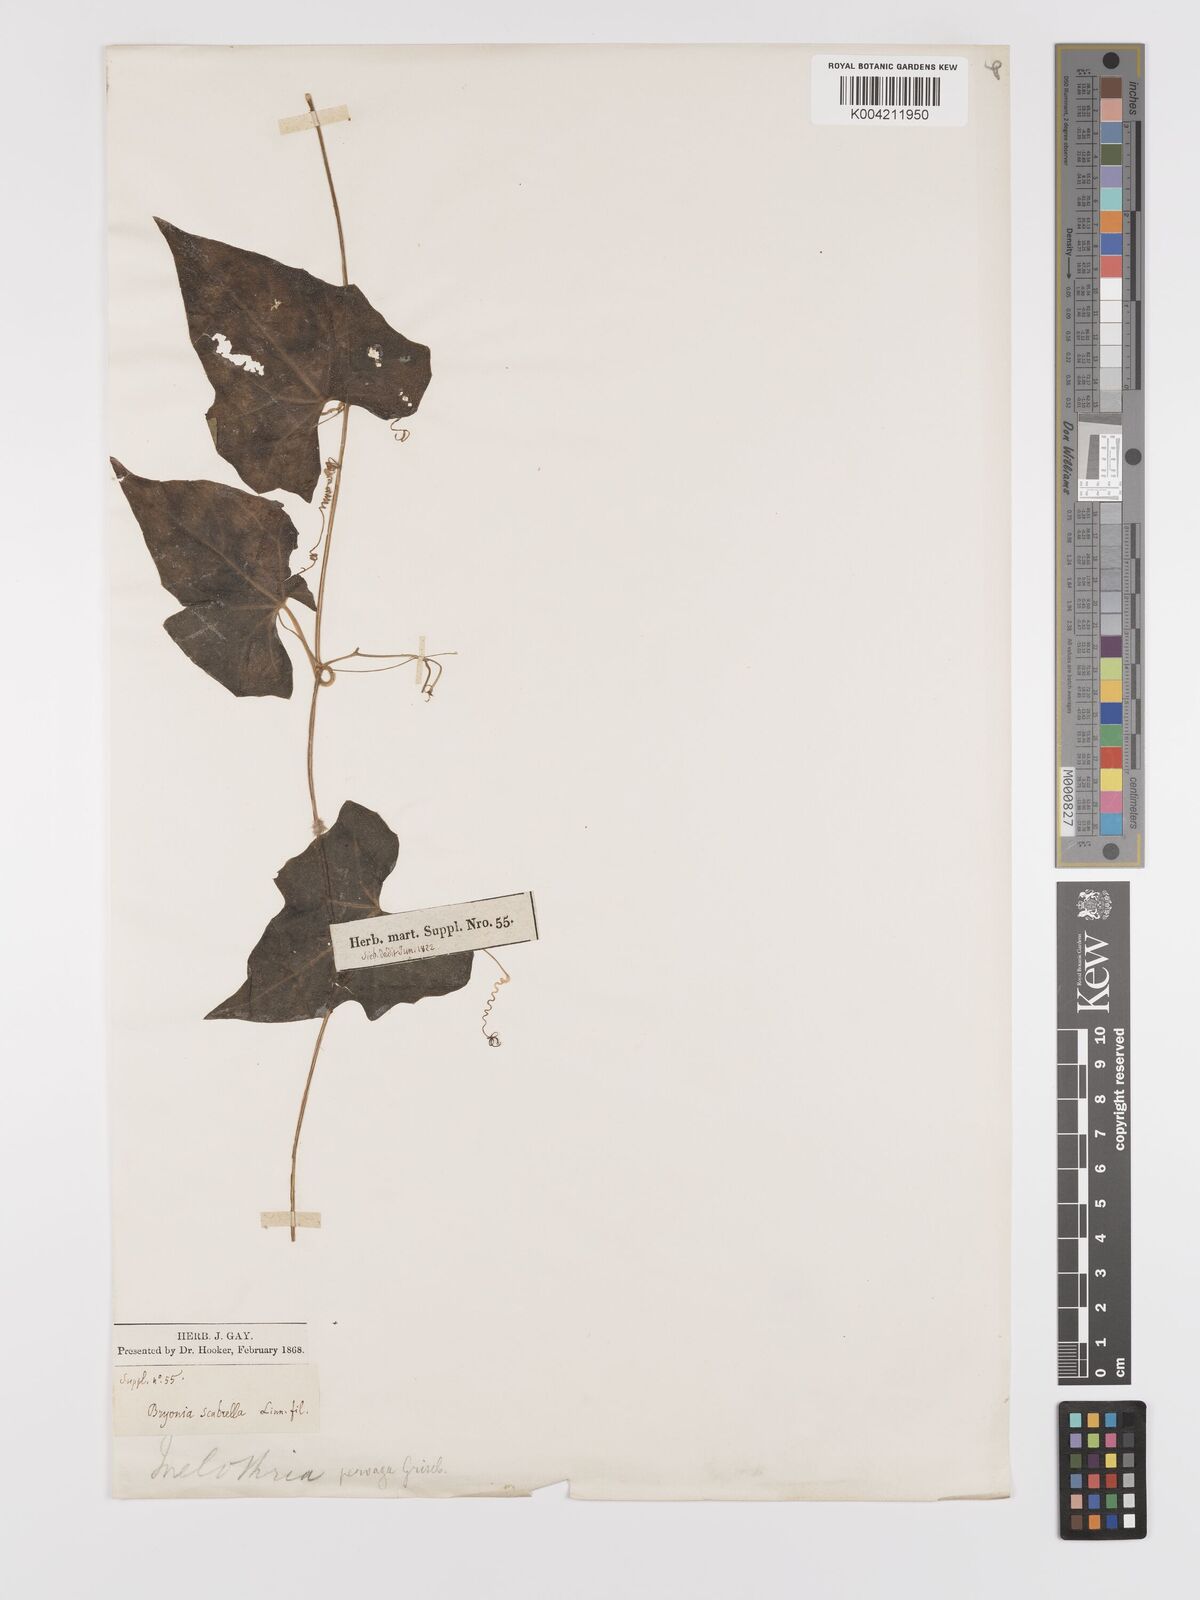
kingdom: Plantae
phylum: Tracheophyta
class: Magnoliopsida
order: Cucurbitales
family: Cucurbitaceae
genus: Melothria
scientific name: Melothria pendula
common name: Creeping-cucumber
